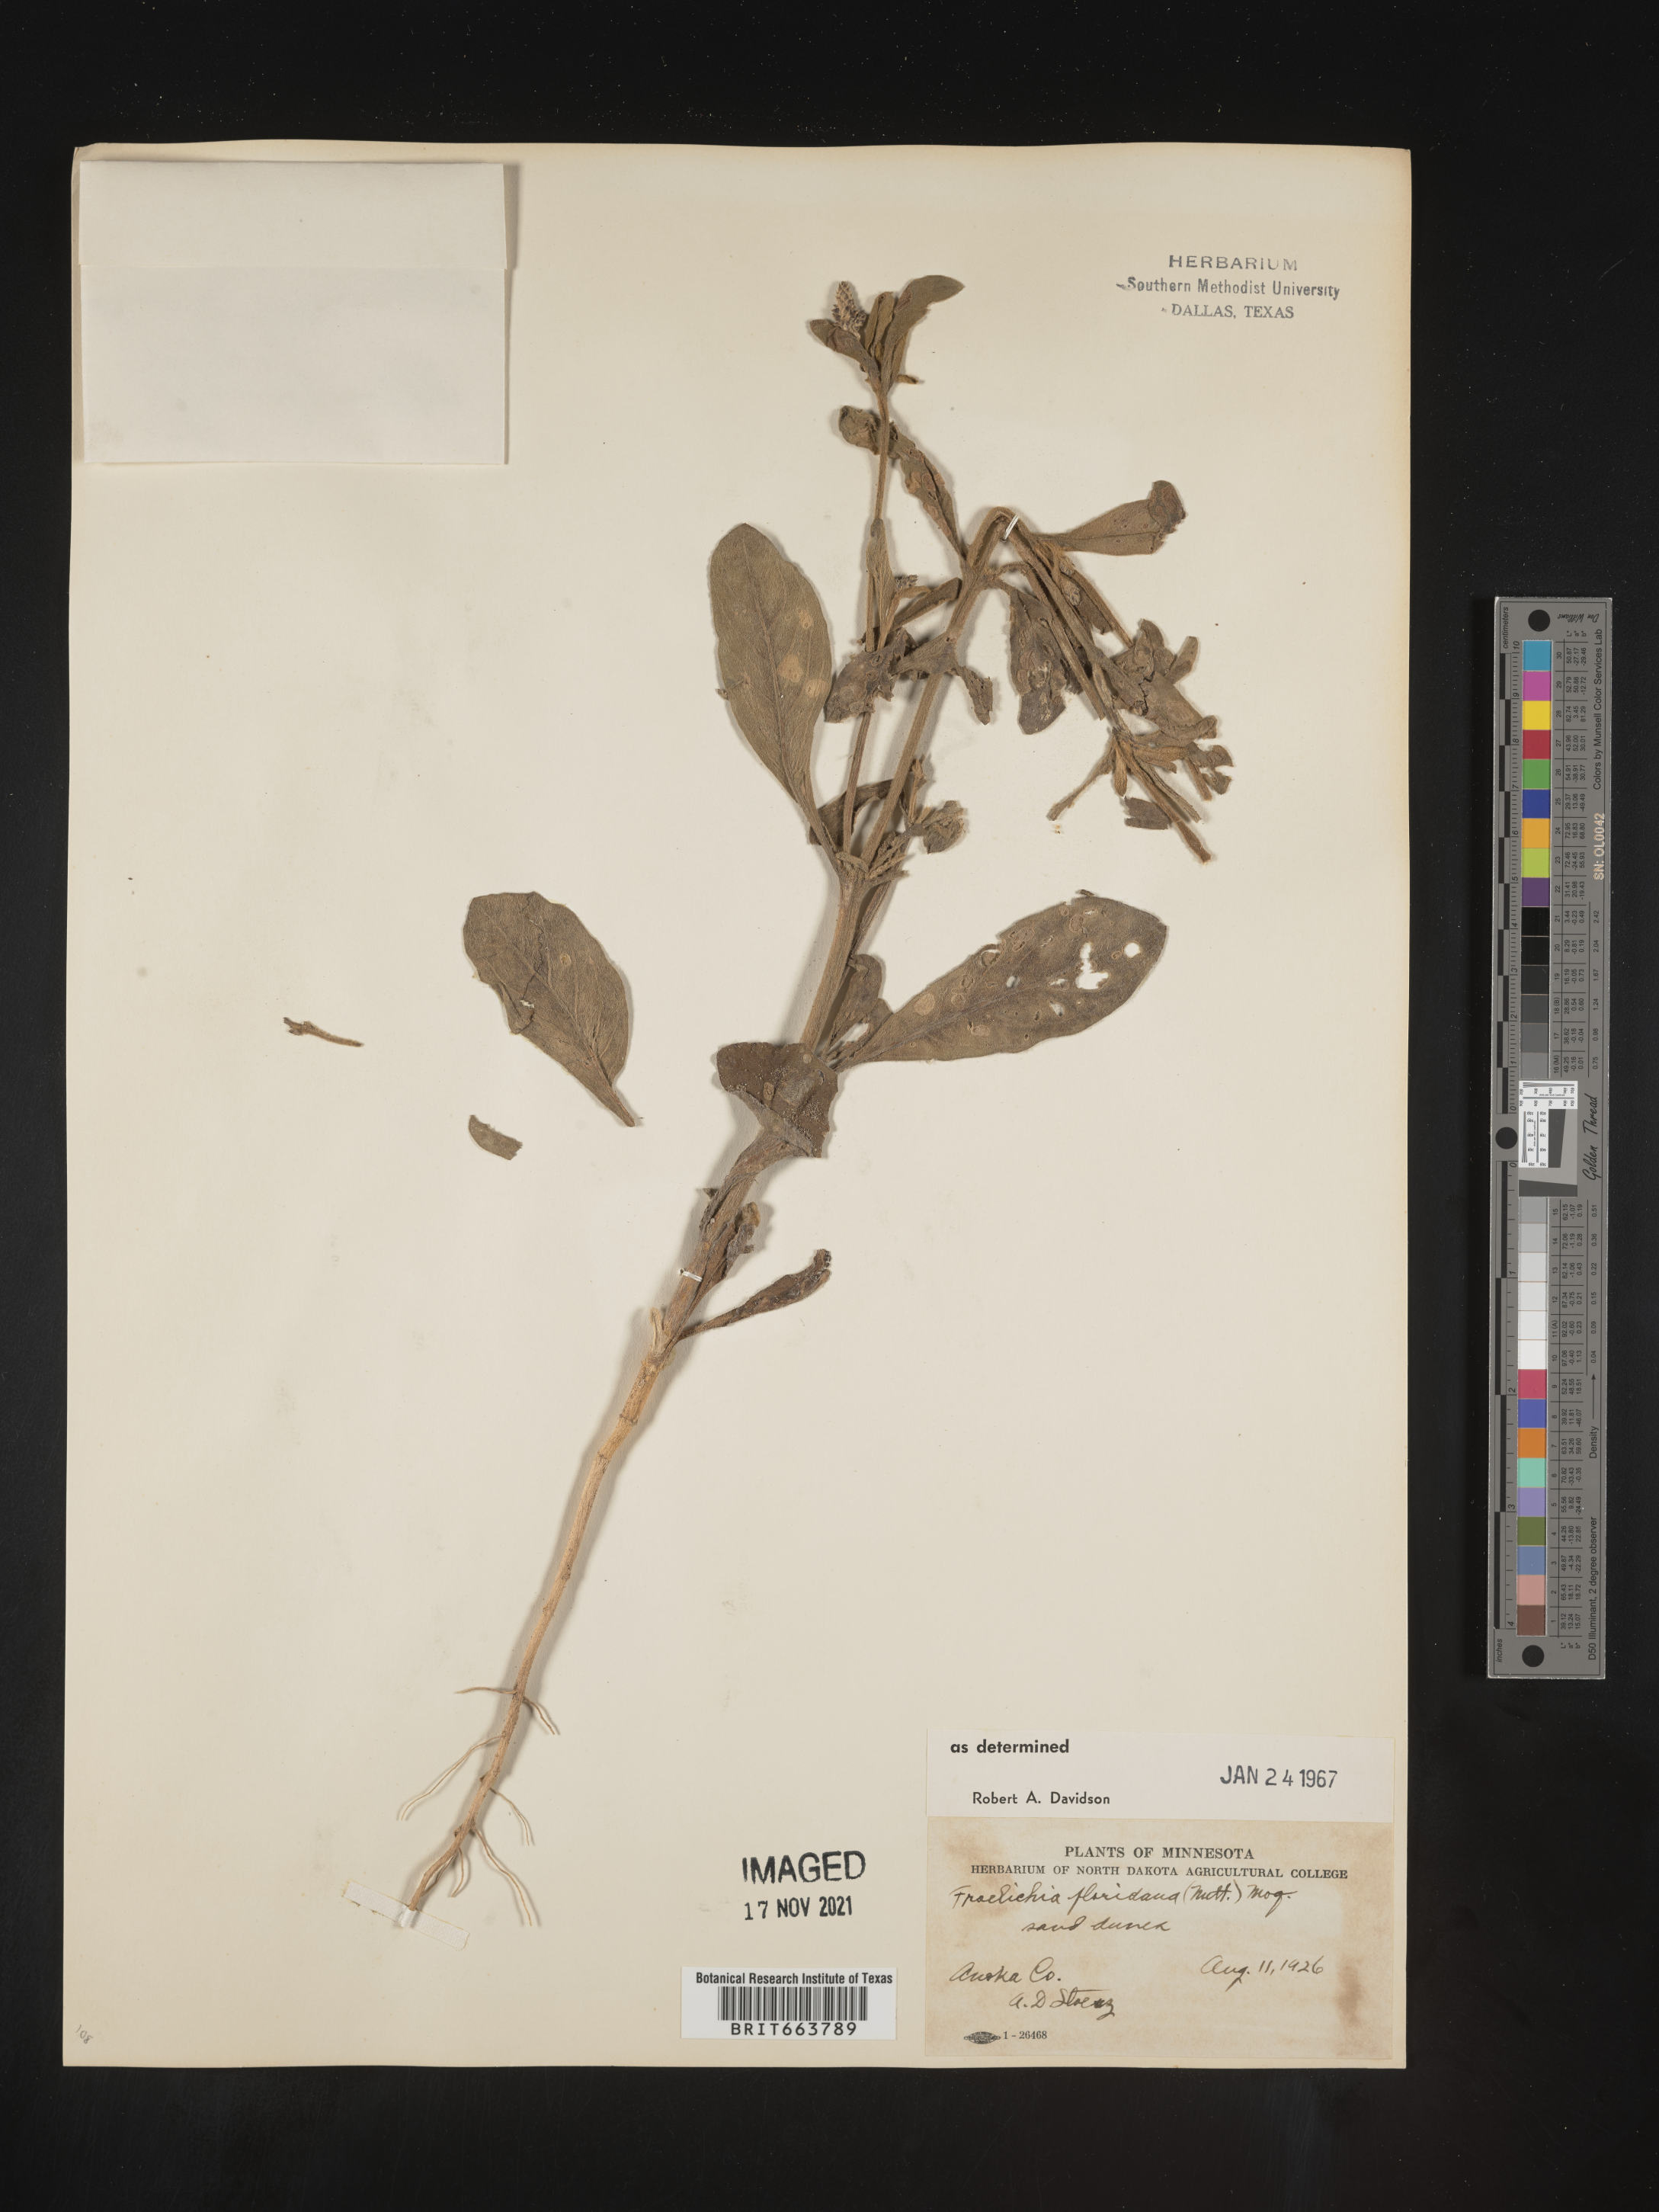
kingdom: Plantae
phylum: Tracheophyta
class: Magnoliopsida
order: Caryophyllales
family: Amaranthaceae
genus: Froelichia
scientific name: Froelichia floridana
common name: Florida snake-cotton
